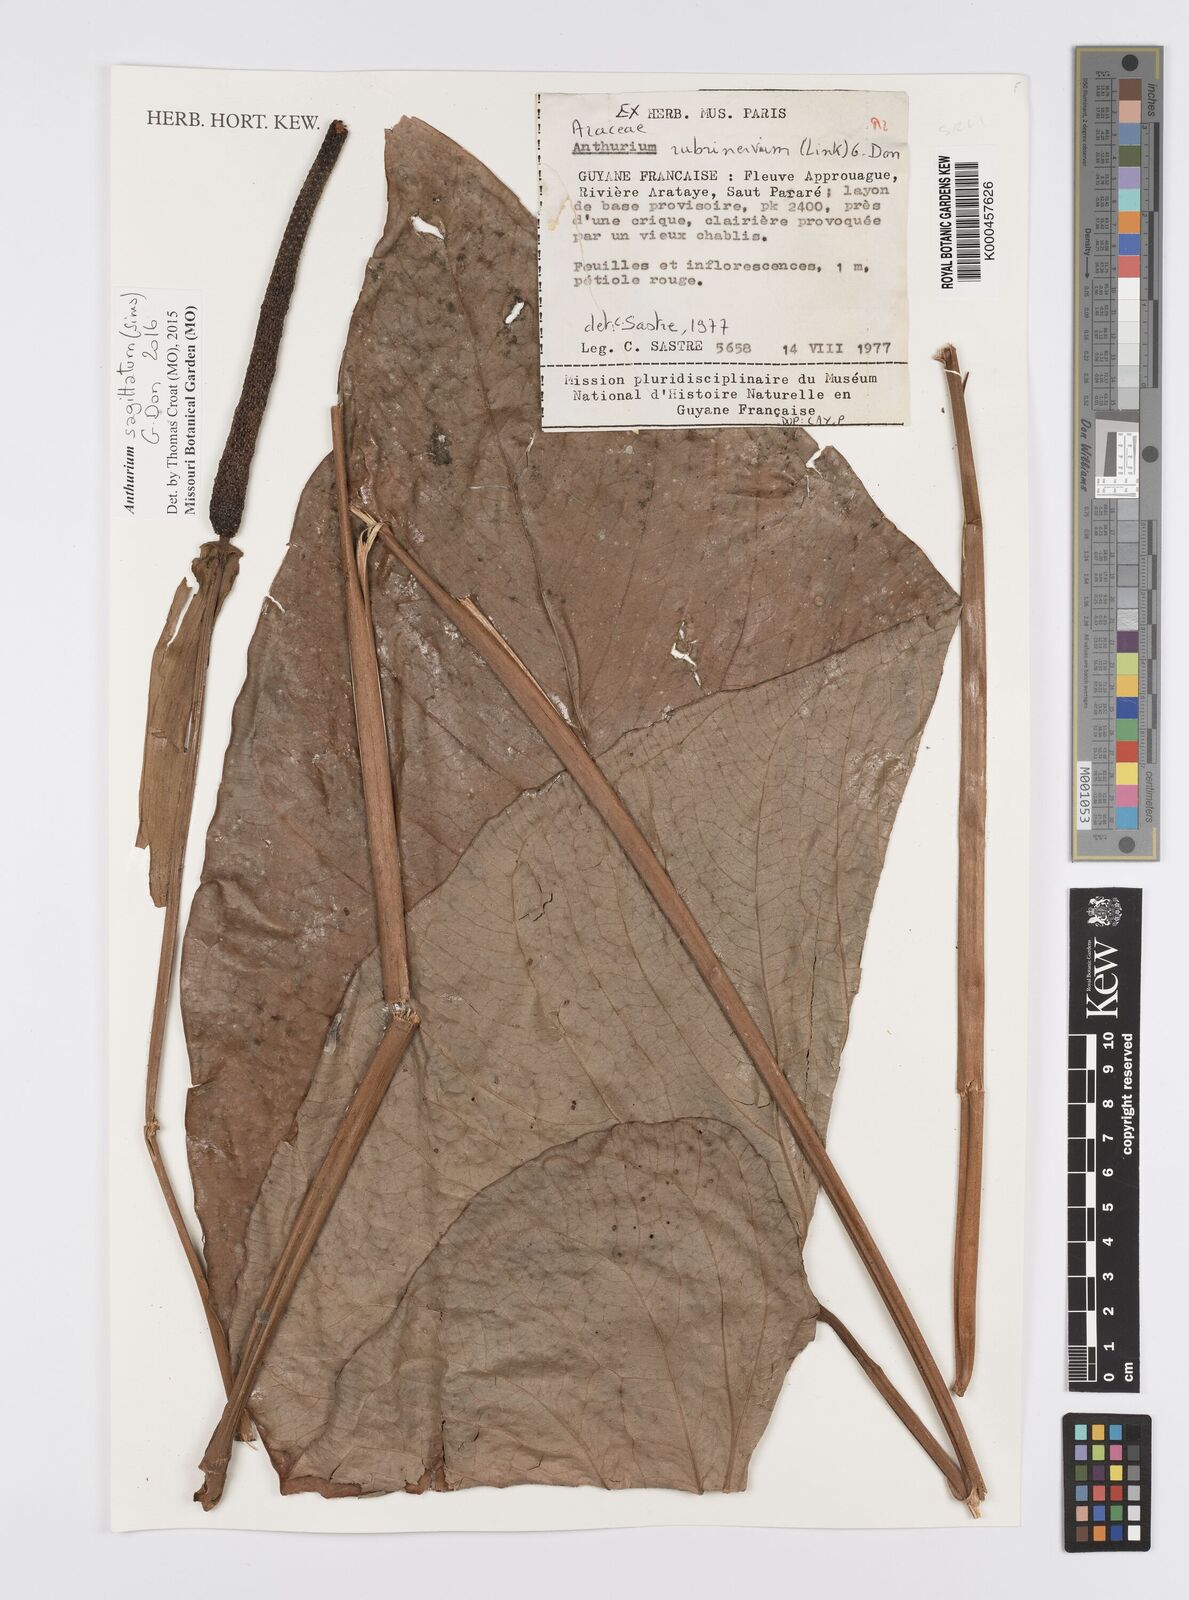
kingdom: Plantae
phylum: Tracheophyta
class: Liliopsida
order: Alismatales
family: Araceae
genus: Anthurium
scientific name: Anthurium sagittatum
